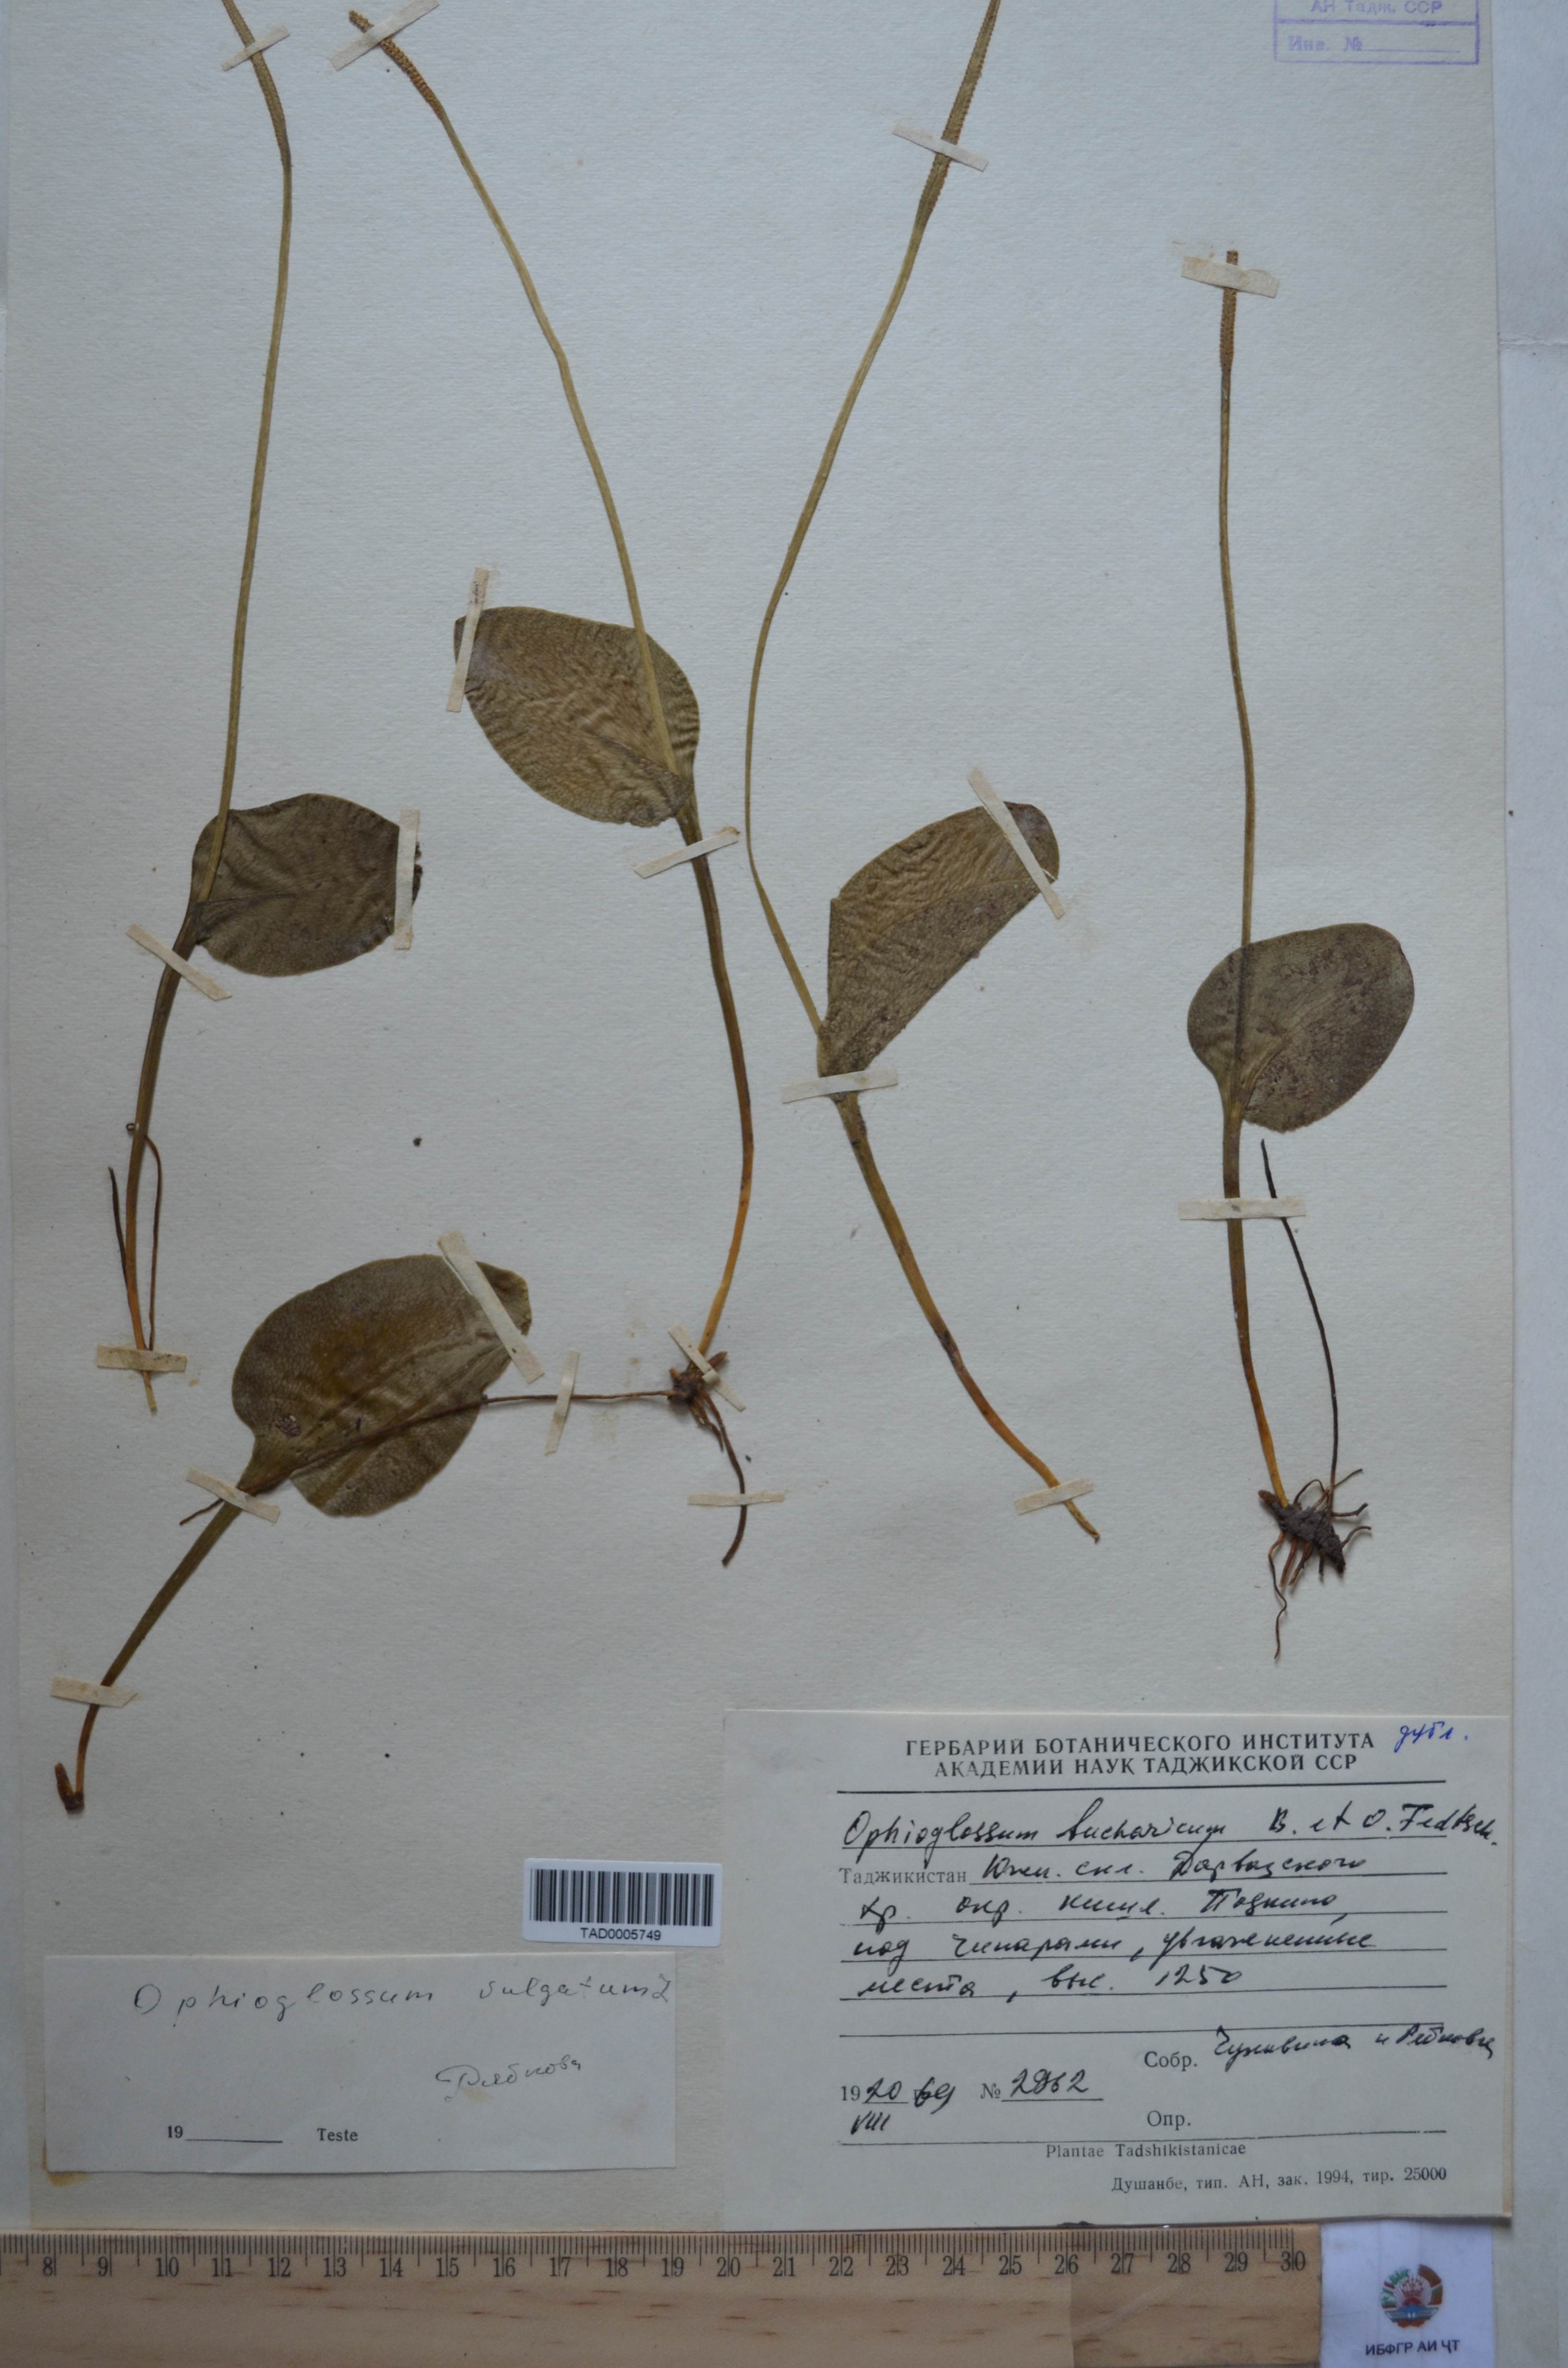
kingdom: Plantae
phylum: Tracheophyta
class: Polypodiopsida
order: Ophioglossales
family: Ophioglossaceae
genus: Ophioglossum
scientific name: Ophioglossum vulgatum
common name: Adder's-tongue
